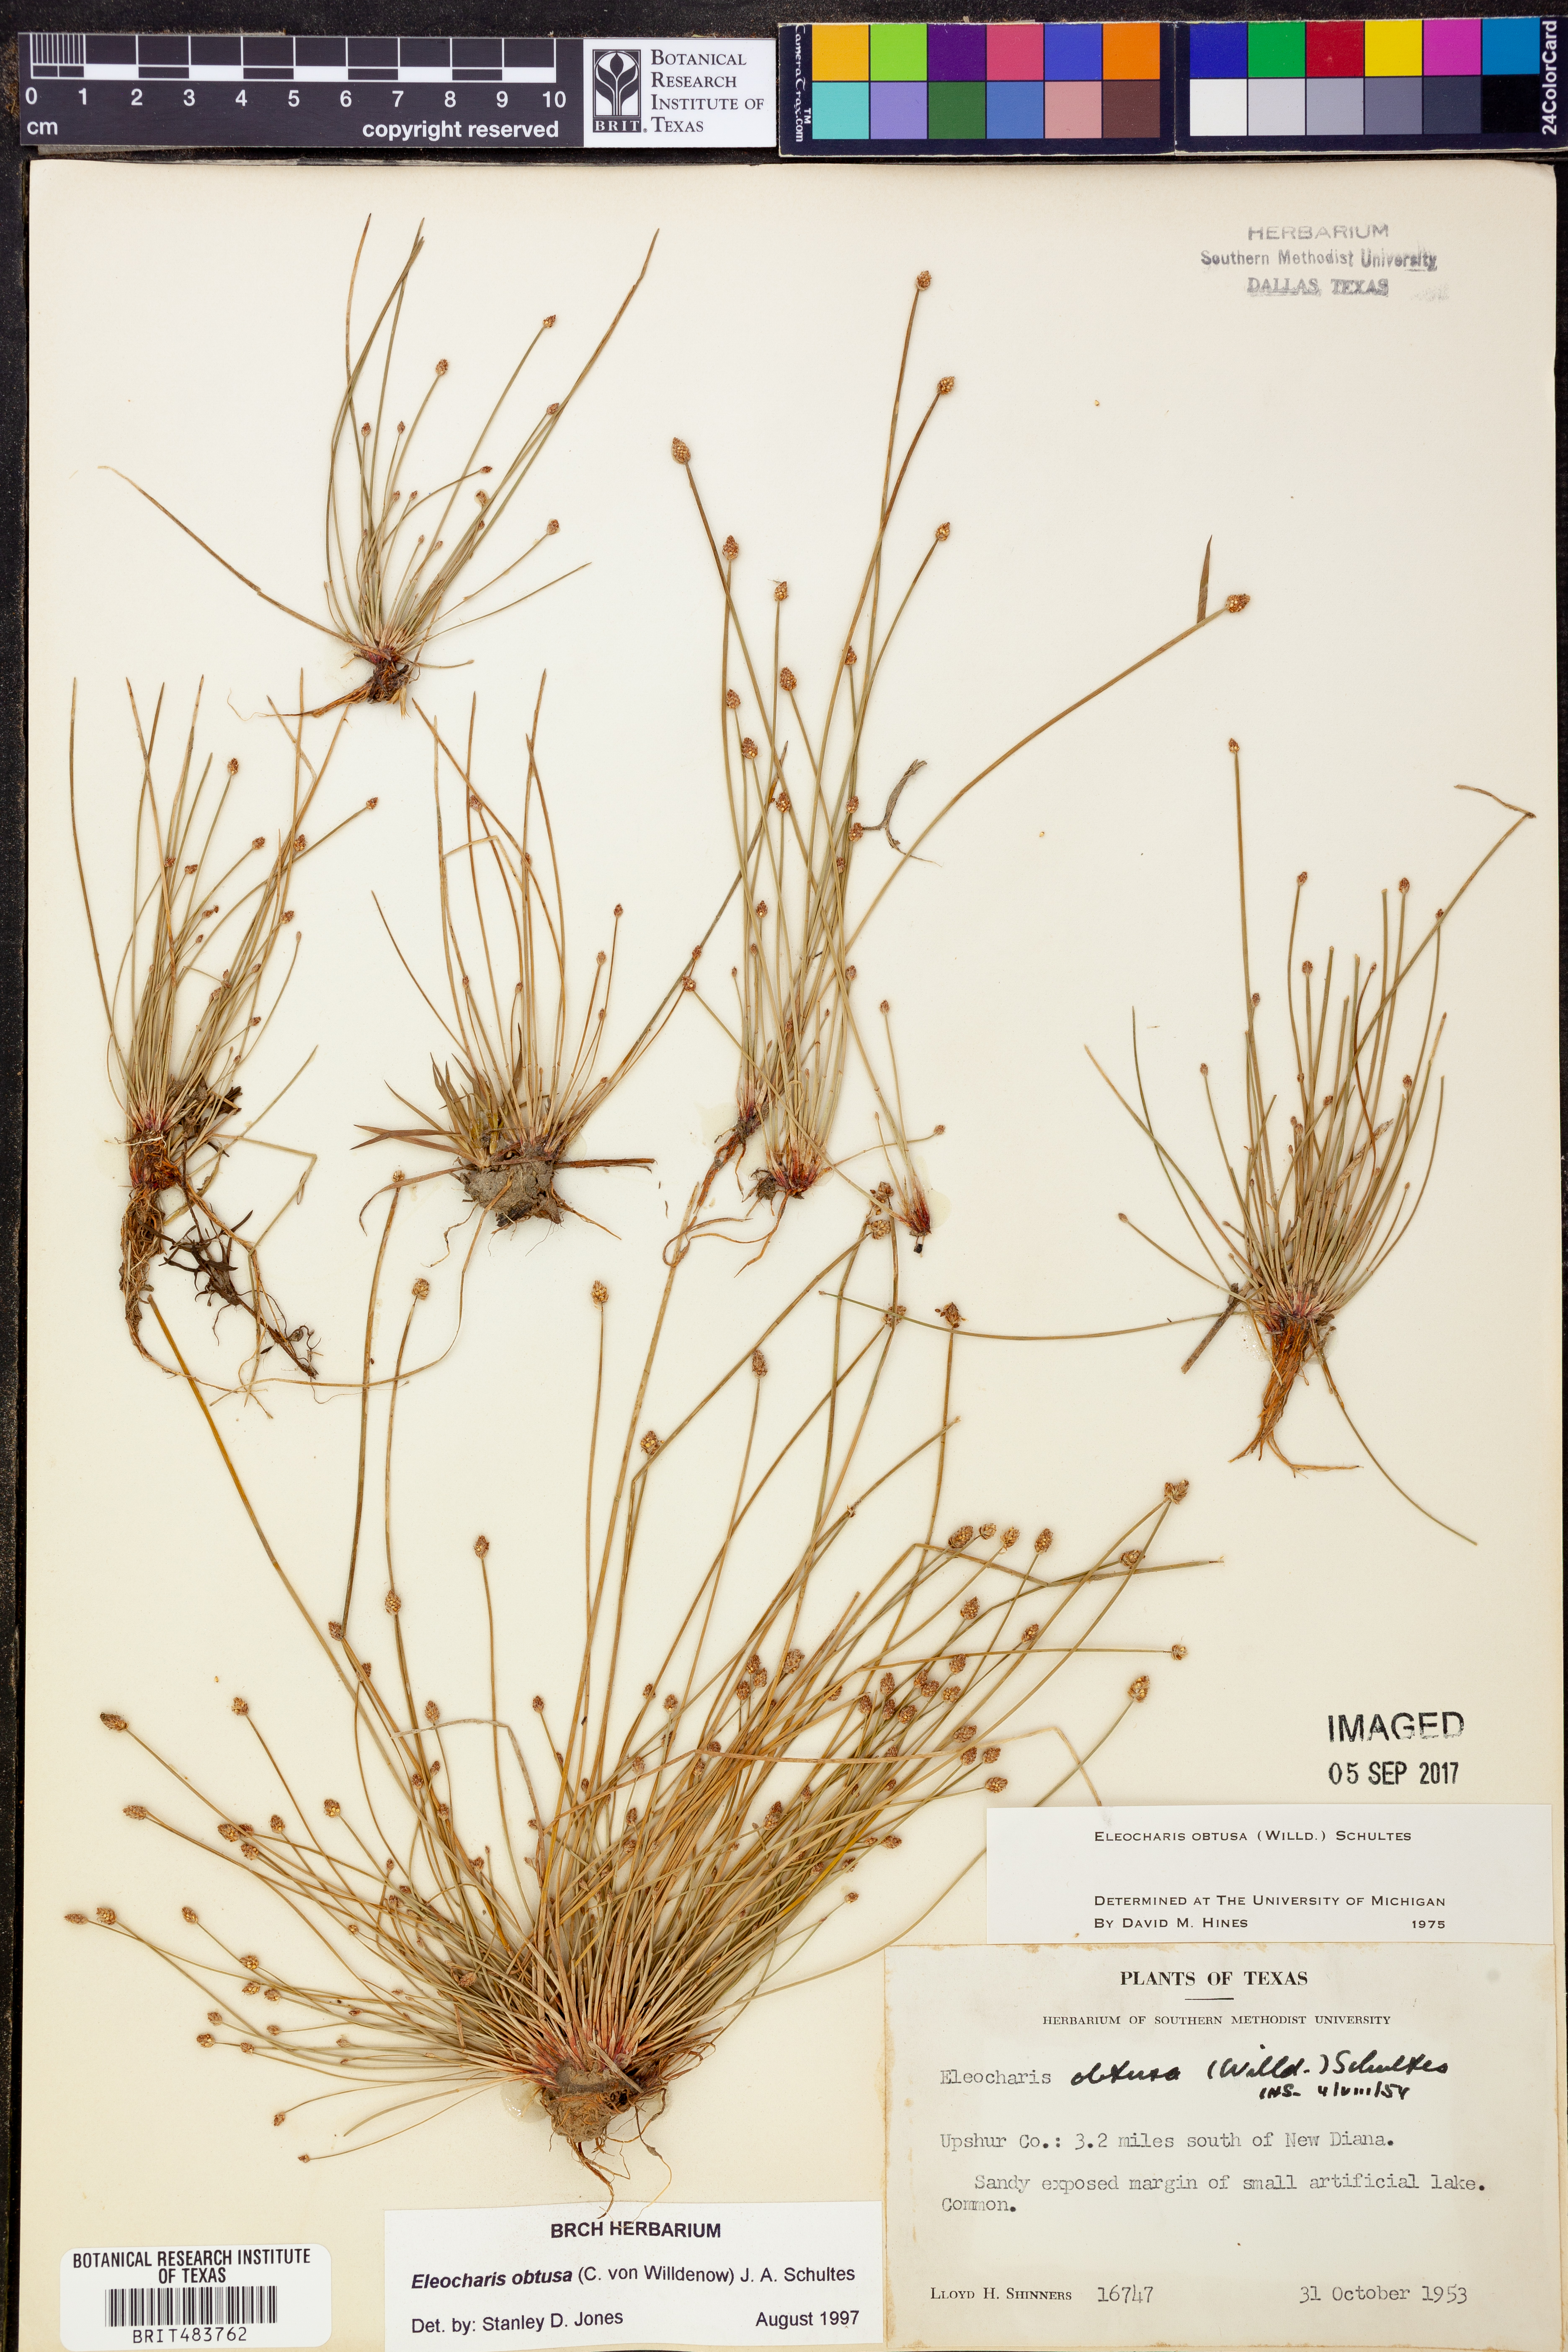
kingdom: Plantae
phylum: Tracheophyta
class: Liliopsida
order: Poales
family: Cyperaceae
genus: Eleocharis
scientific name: Eleocharis obtusa
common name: Blunt spikerush
